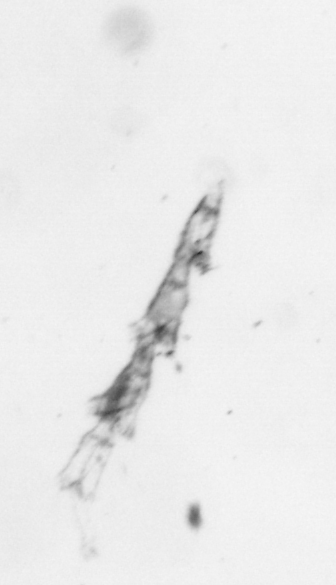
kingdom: Animalia
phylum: Cnidaria
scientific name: Cnidaria
